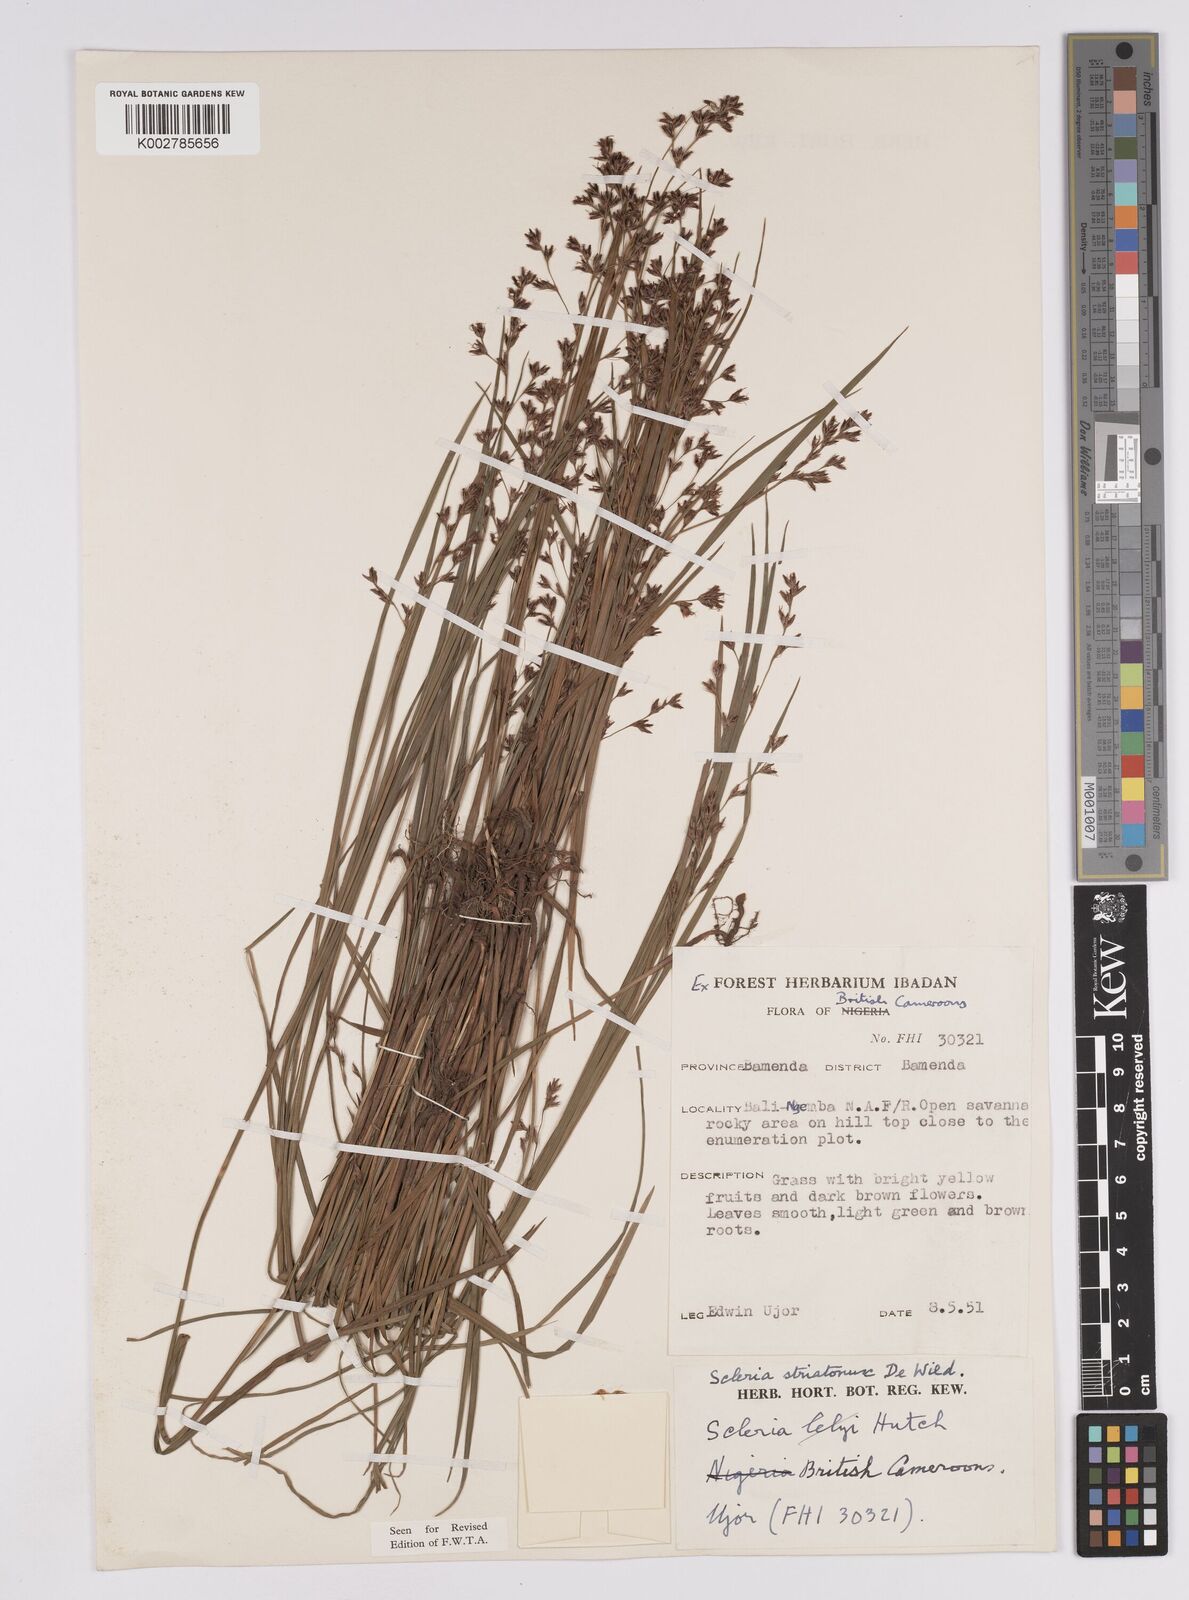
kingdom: Plantae
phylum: Tracheophyta
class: Liliopsida
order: Poales
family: Cyperaceae
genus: Scleria
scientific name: Scleria woodii
